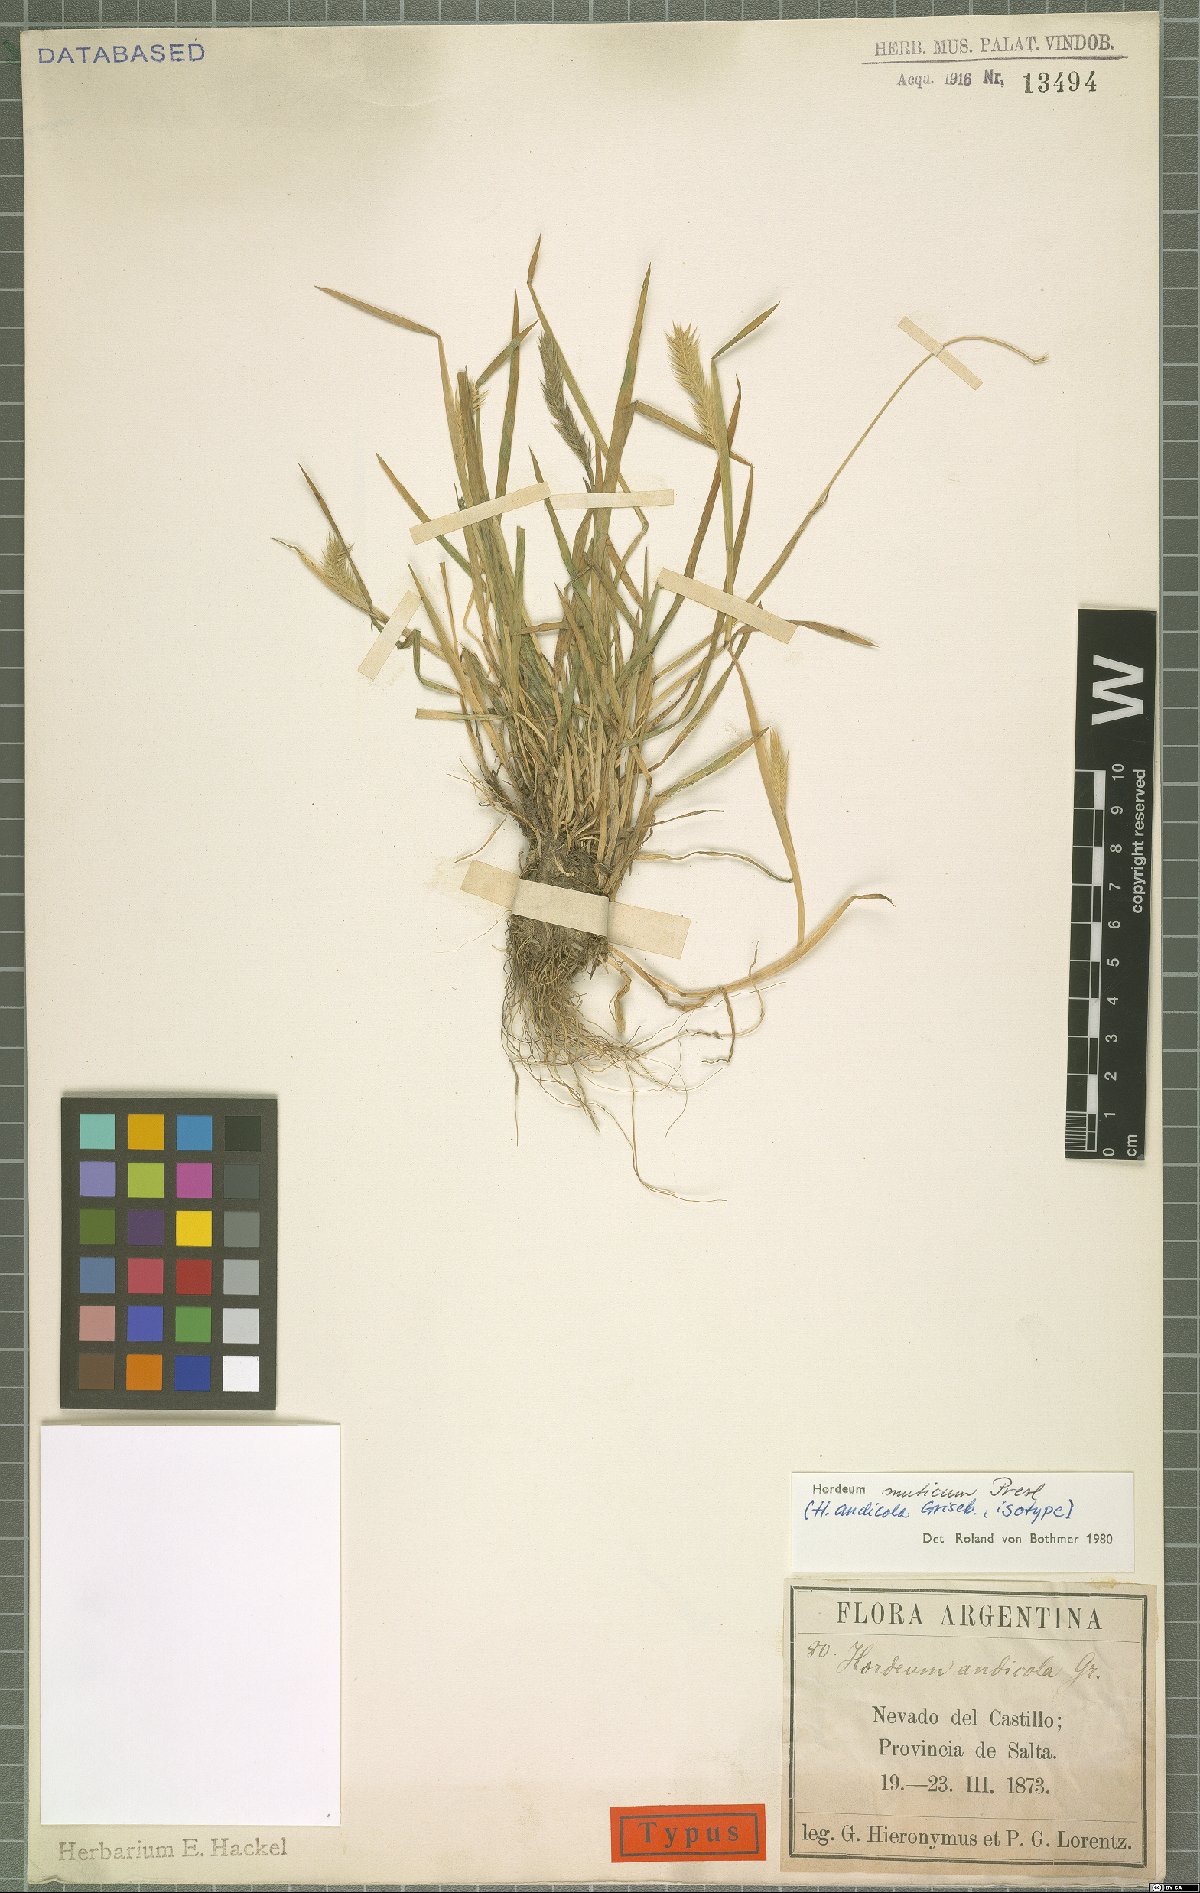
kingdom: Plantae
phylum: Tracheophyta
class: Liliopsida
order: Poales
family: Poaceae
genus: Hordeum
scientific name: Hordeum muticum
